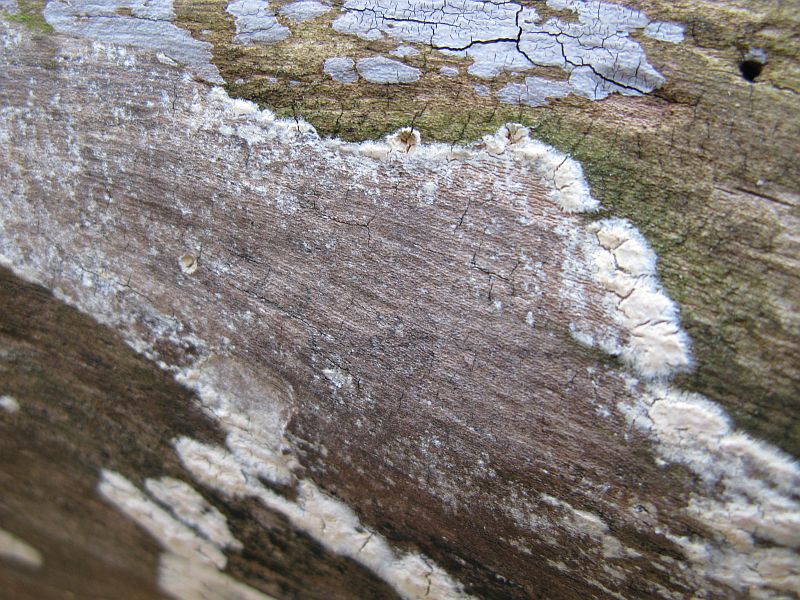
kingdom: Fungi
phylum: Basidiomycota
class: Agaricomycetes
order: Agaricales
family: Radulomycetaceae
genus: Radulomyces
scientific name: Radulomyces confluens
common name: glat naftalinskind
